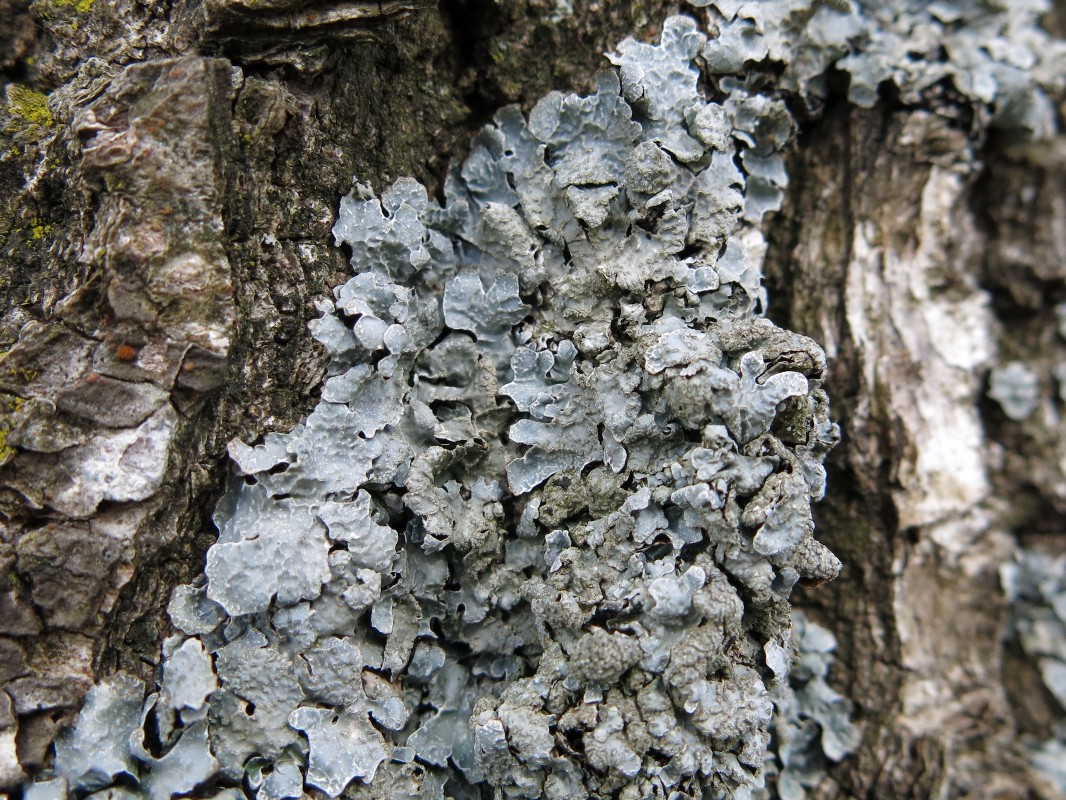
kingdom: Fungi
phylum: Ascomycota
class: Lecanoromycetes
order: Lecanorales
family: Parmeliaceae
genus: Parmelia
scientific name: Parmelia sulcata
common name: rynket skållav
